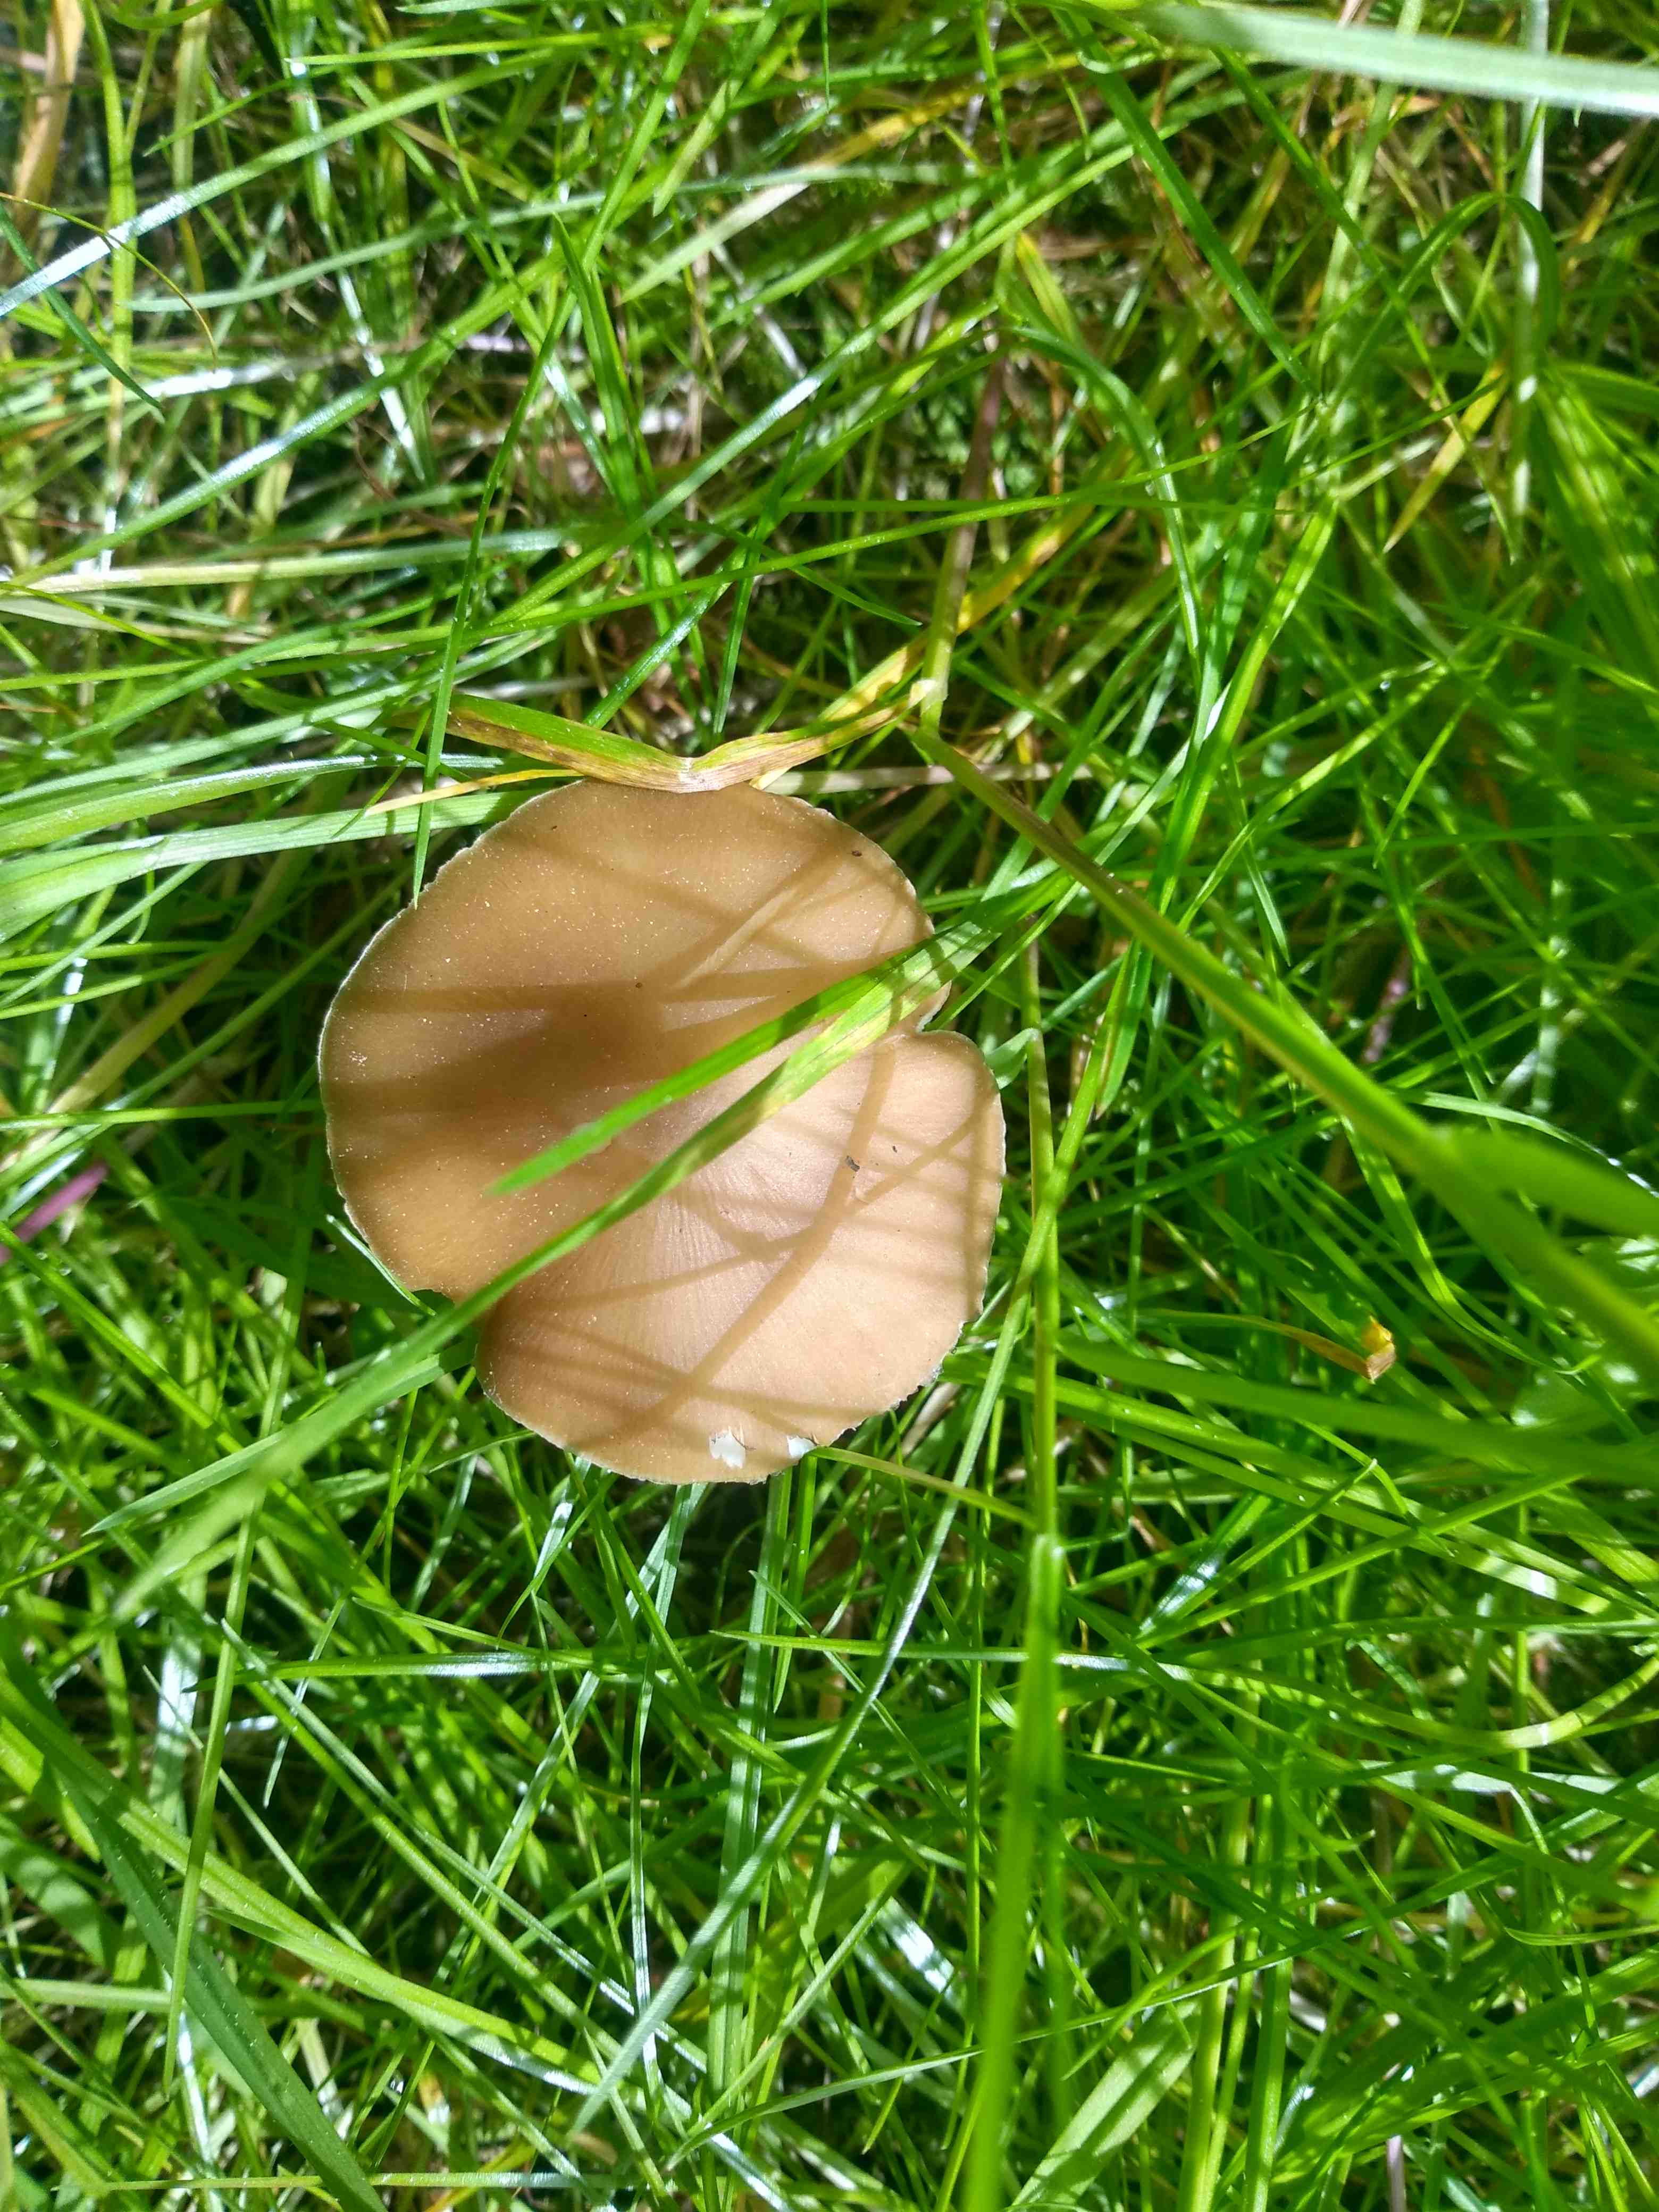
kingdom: Fungi
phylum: Basidiomycota
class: Agaricomycetes
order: Agaricales
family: Physalacriaceae
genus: Hymenopellis
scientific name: Hymenopellis radicata
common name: almindelig pælerodshat
